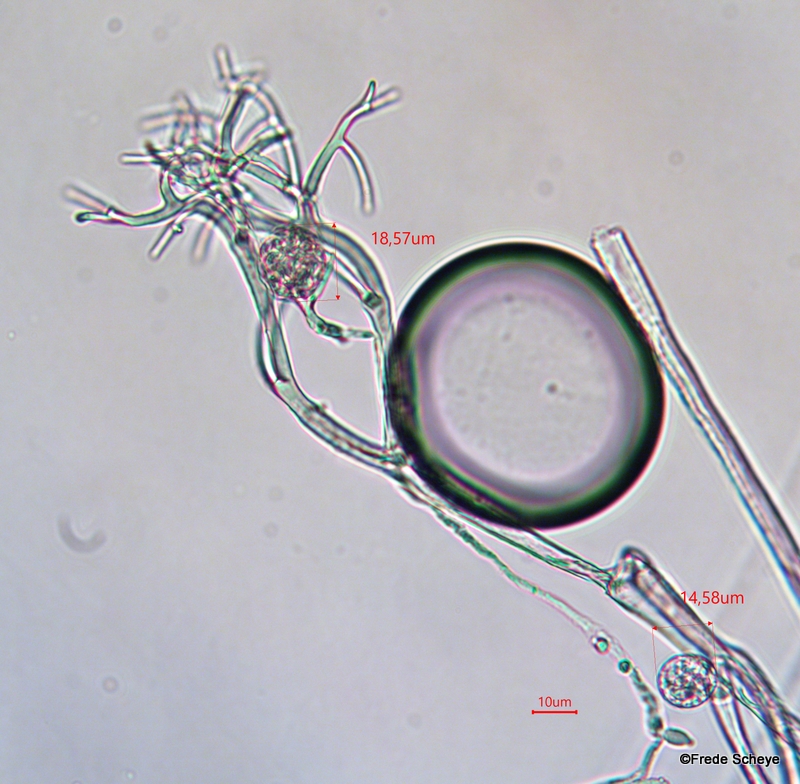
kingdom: Chromista
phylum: Oomycota
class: Peronosporea
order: Peronosporales
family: Peronosporaceae
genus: Peronospora
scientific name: Peronospora potentillae-reptantis
